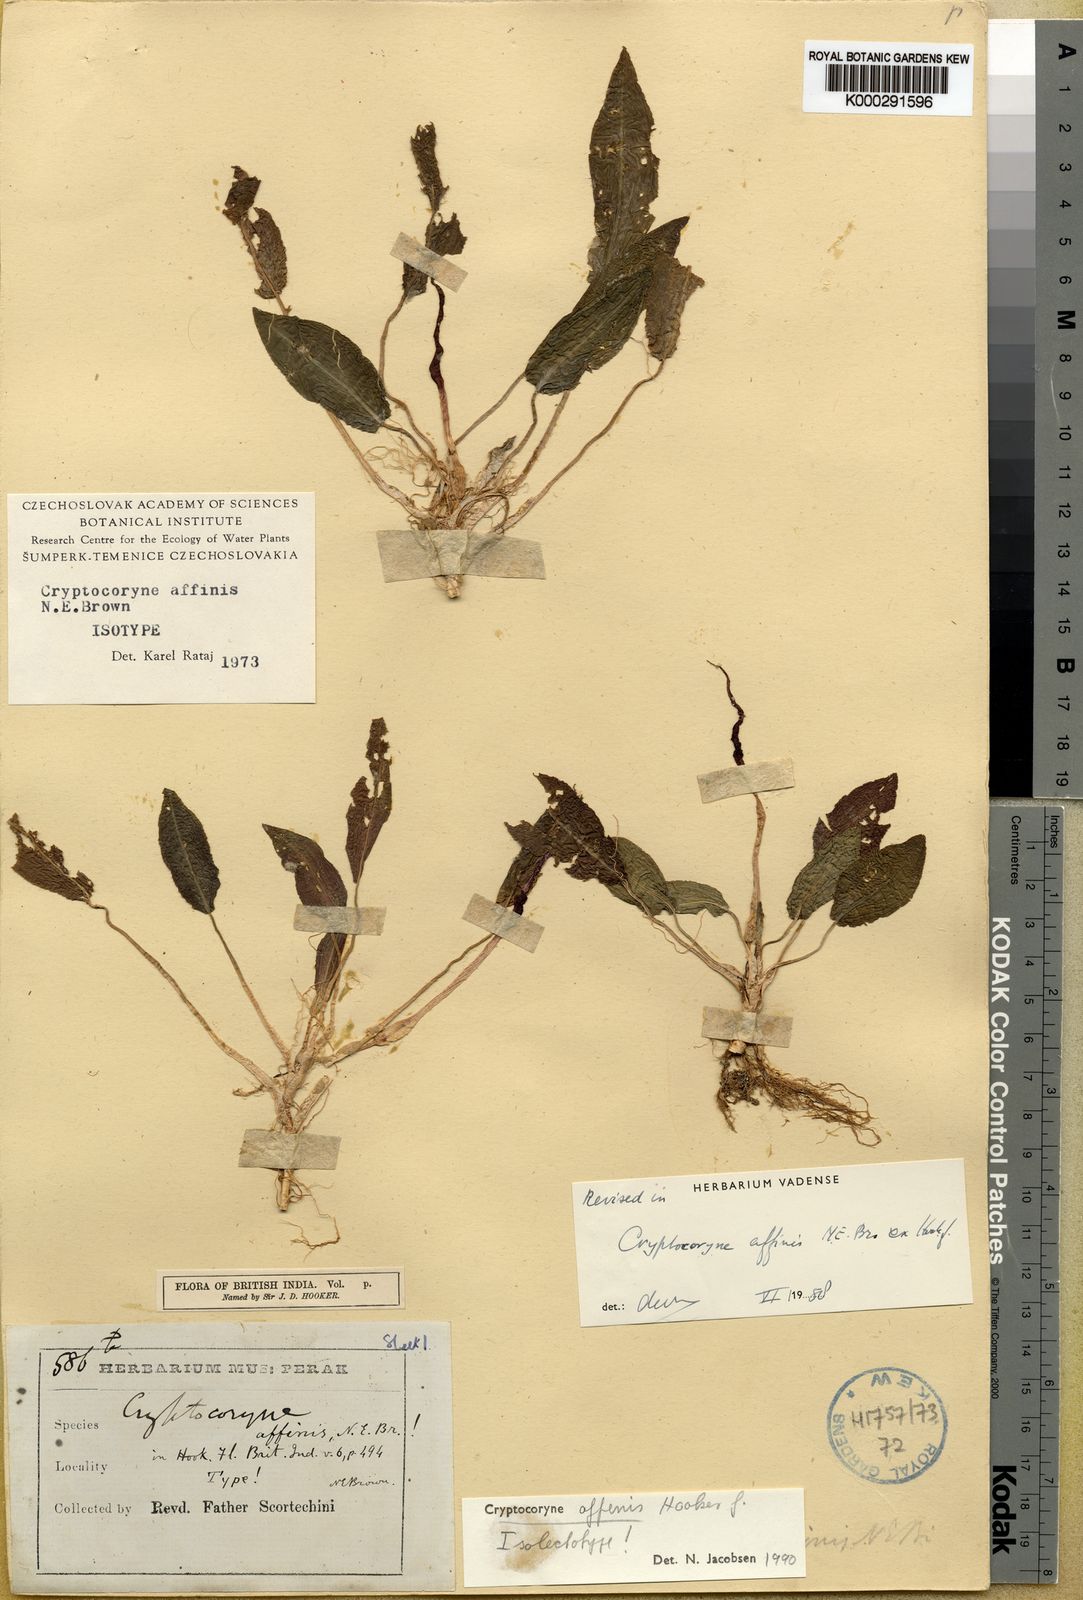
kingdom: Plantae
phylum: Tracheophyta
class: Liliopsida
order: Alismatales
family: Araceae
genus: Cryptocoryne
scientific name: Cryptocoryne
